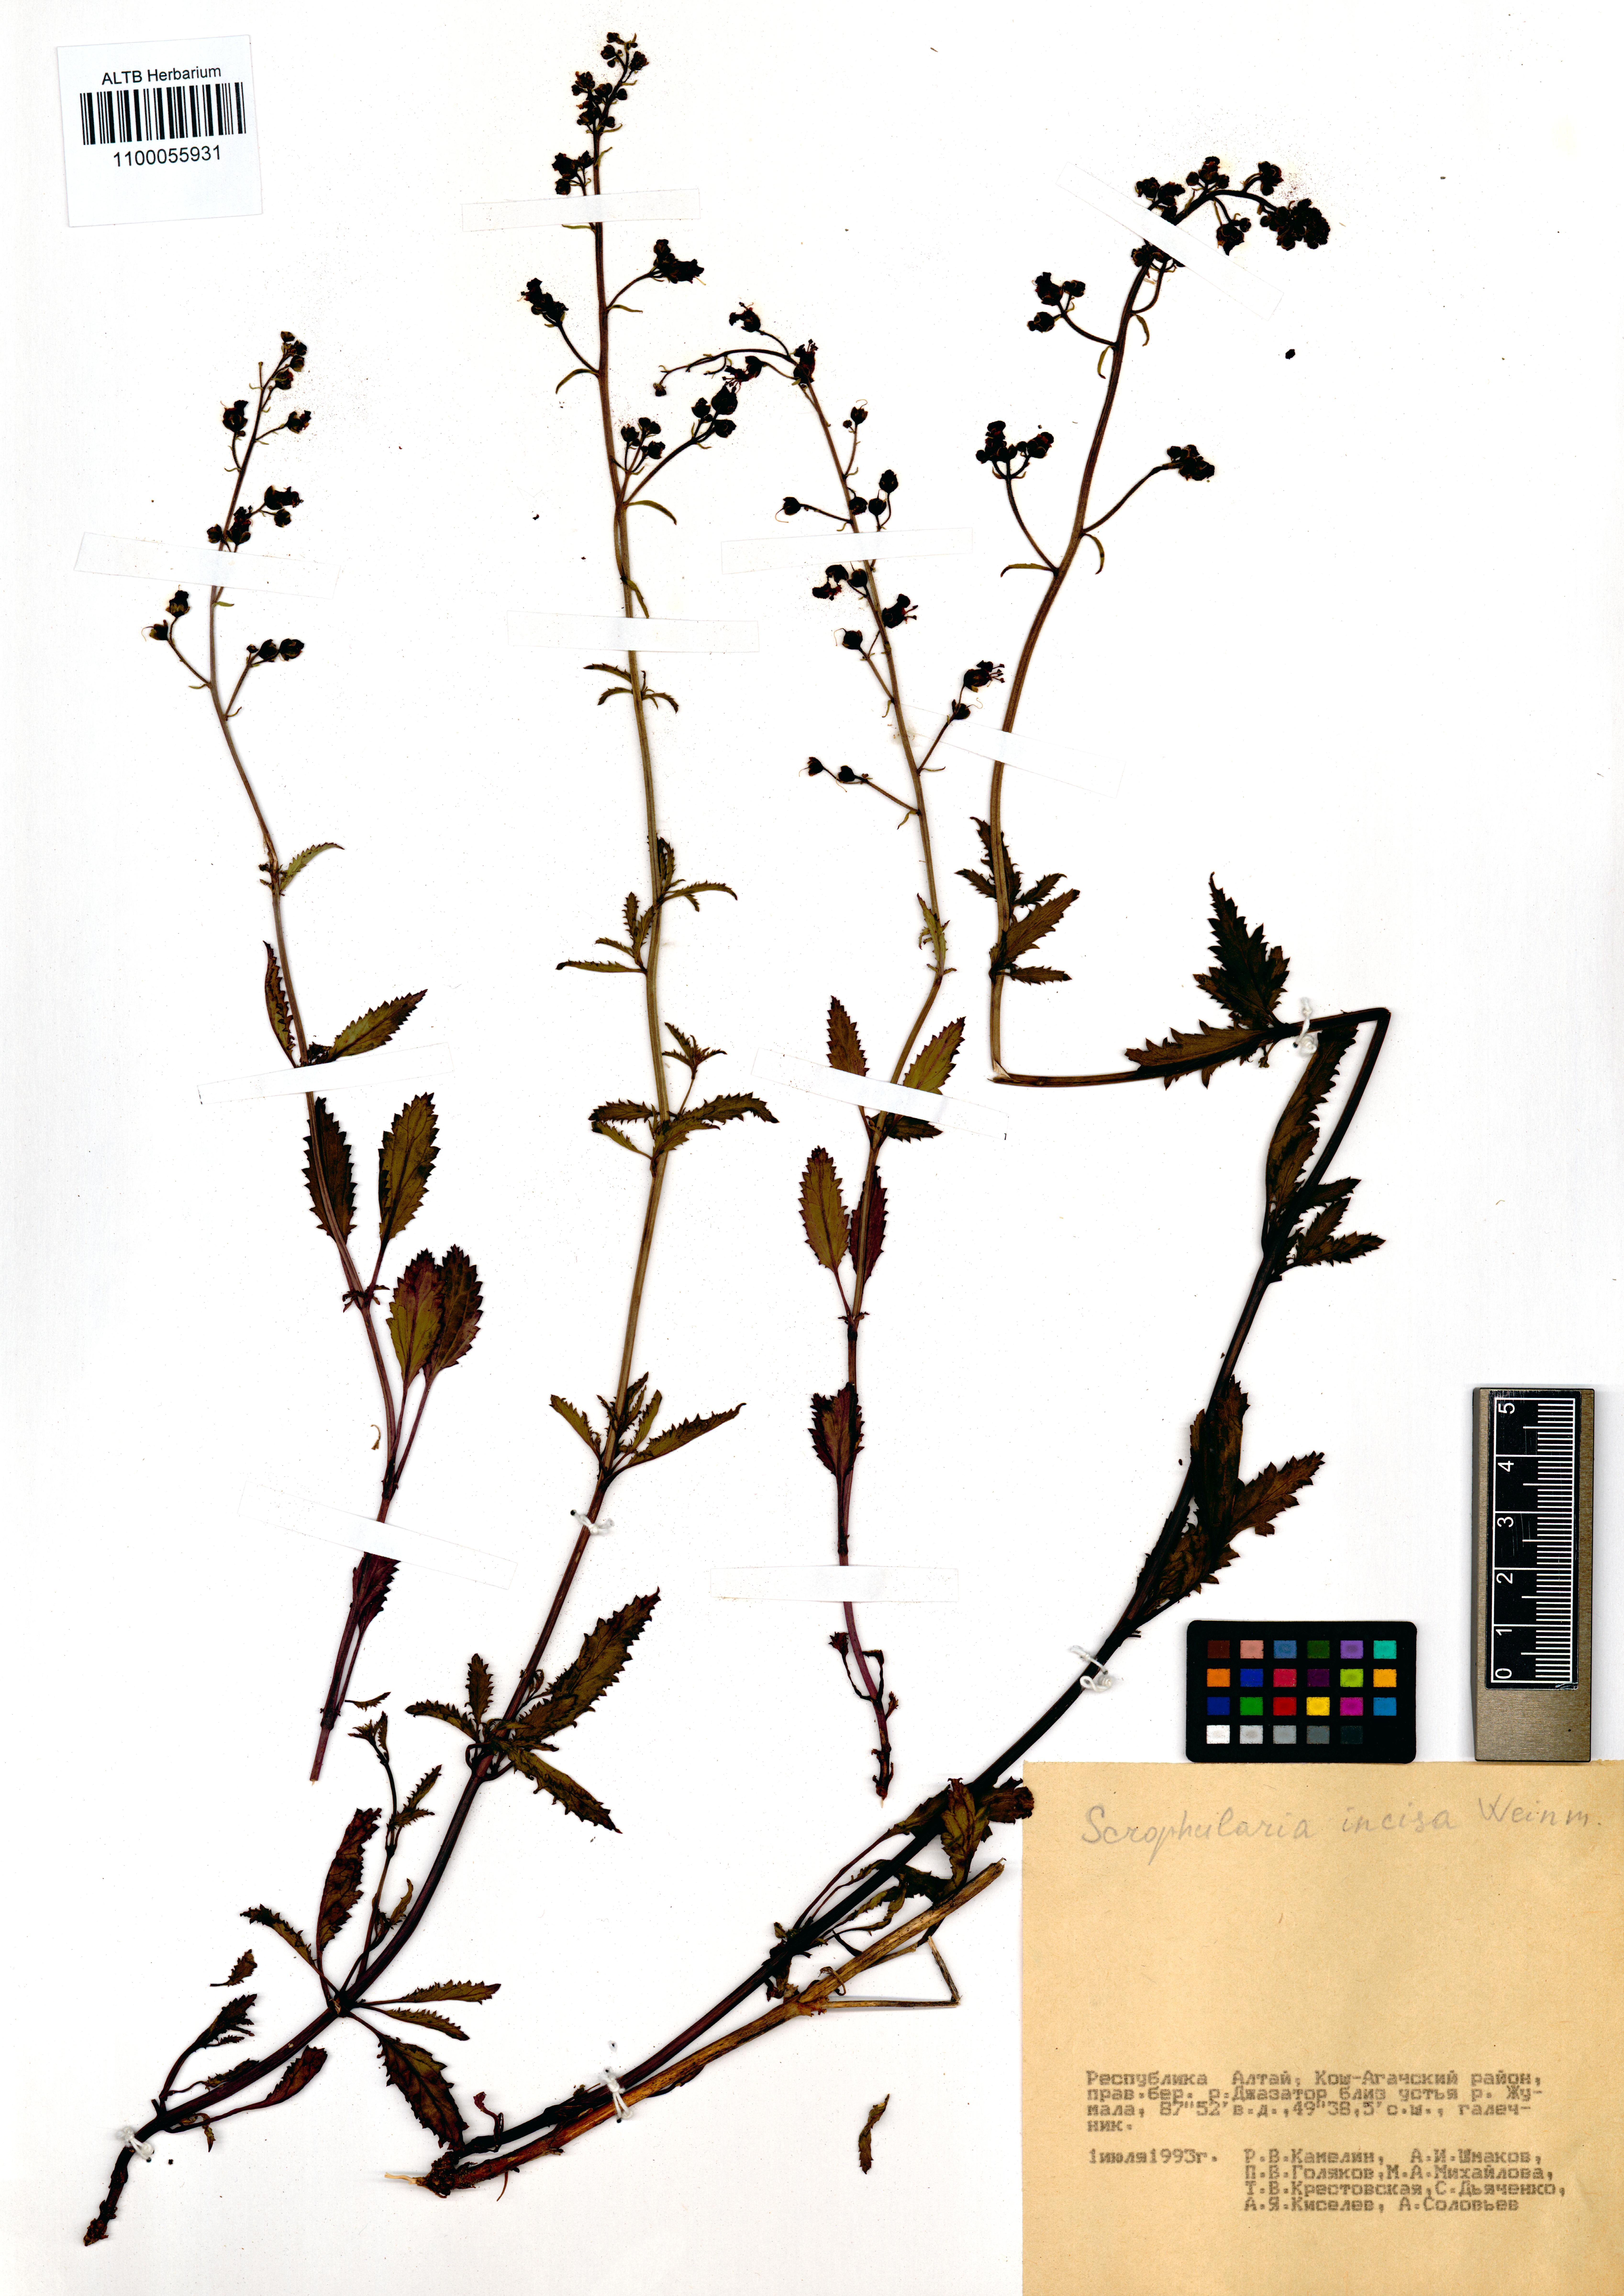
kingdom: Plantae
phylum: Tracheophyta
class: Magnoliopsida
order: Lamiales
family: Scrophulariaceae
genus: Scrophularia
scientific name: Scrophularia incisa
